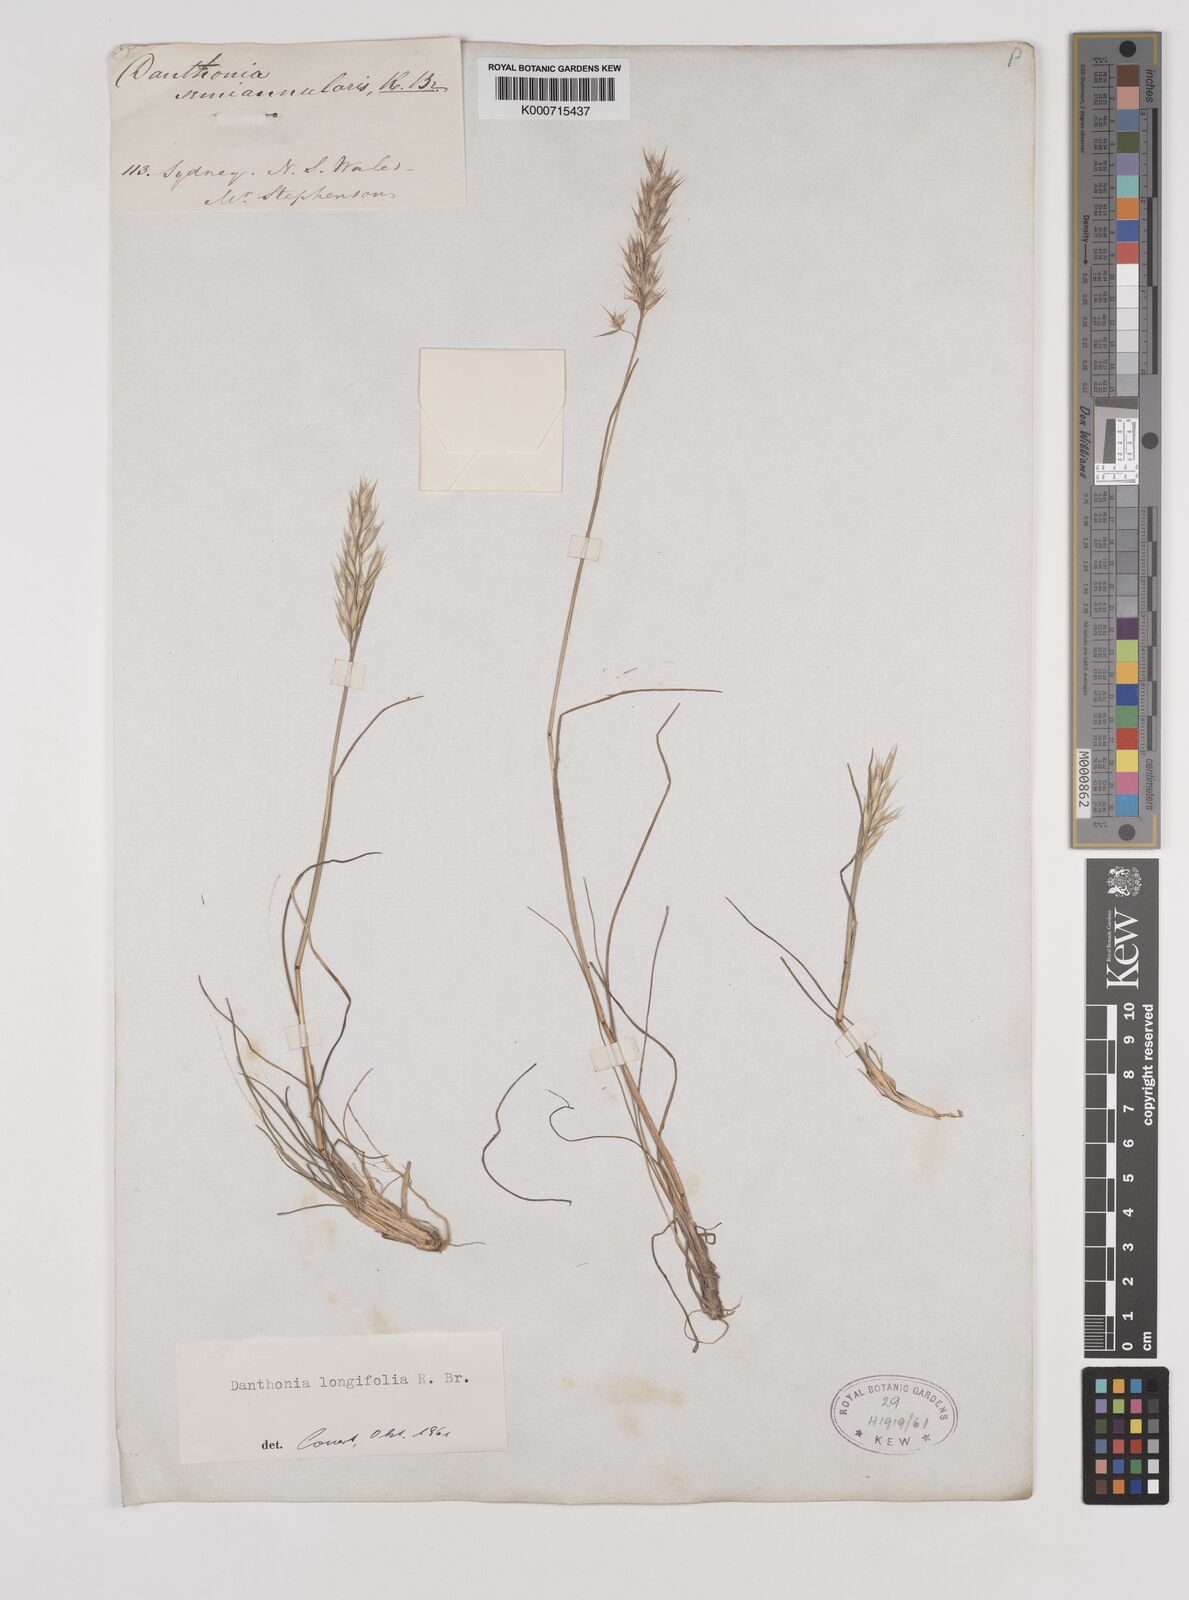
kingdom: Plantae
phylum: Tracheophyta
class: Liliopsida
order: Poales
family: Poaceae
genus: Rytidosperma
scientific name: Rytidosperma longifolium
